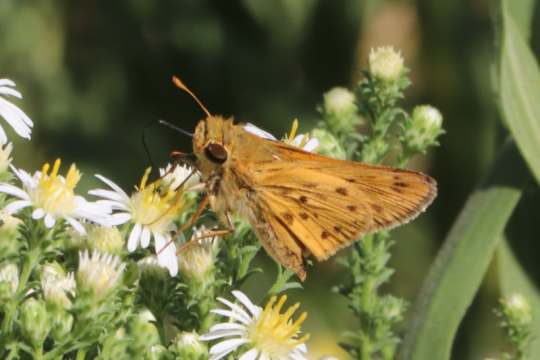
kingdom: Animalia
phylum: Arthropoda
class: Insecta
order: Lepidoptera
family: Hesperiidae
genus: Hylephila
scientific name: Hylephila phyleus
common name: Fiery Skipper
